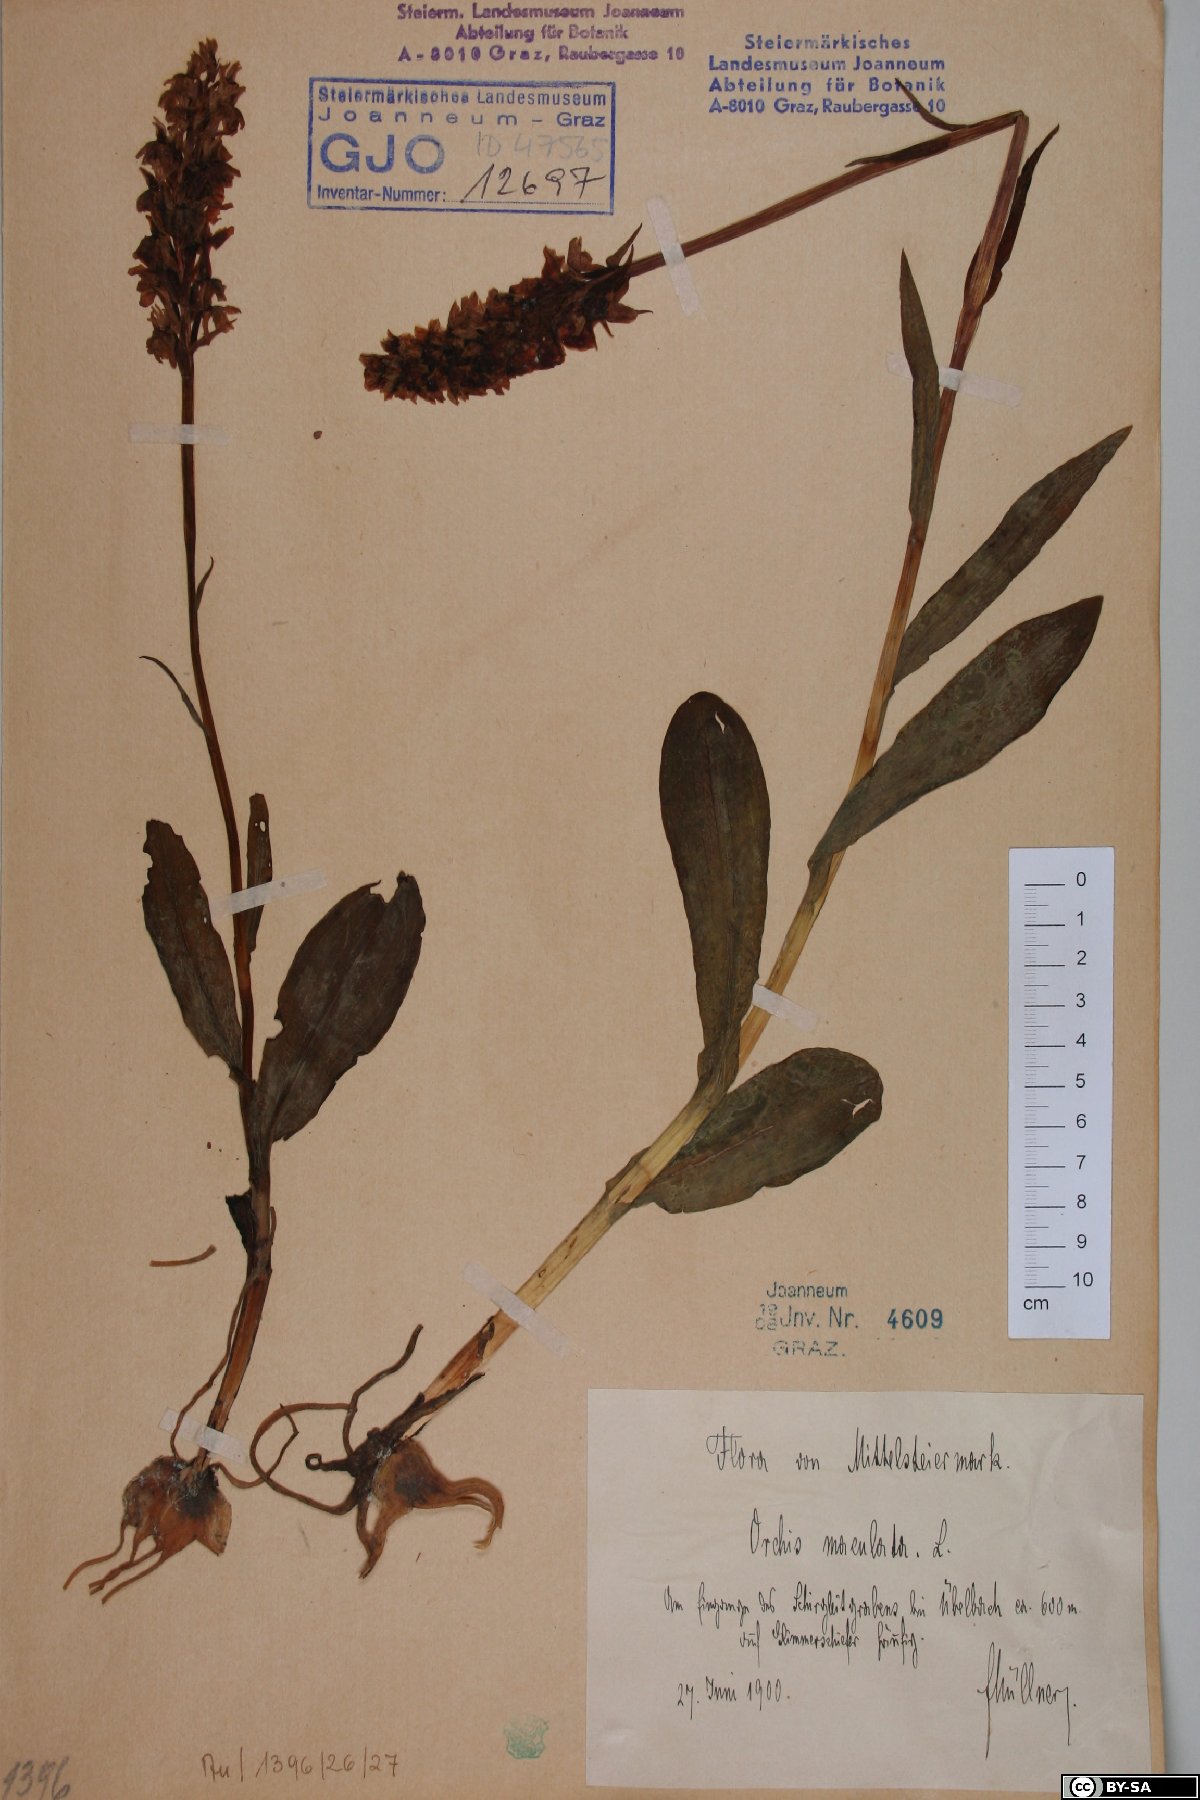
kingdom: Plantae
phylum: Tracheophyta
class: Liliopsida
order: Asparagales
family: Orchidaceae
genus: Dactylorhiza
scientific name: Dactylorhiza maculata
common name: Heath spotted-orchid
